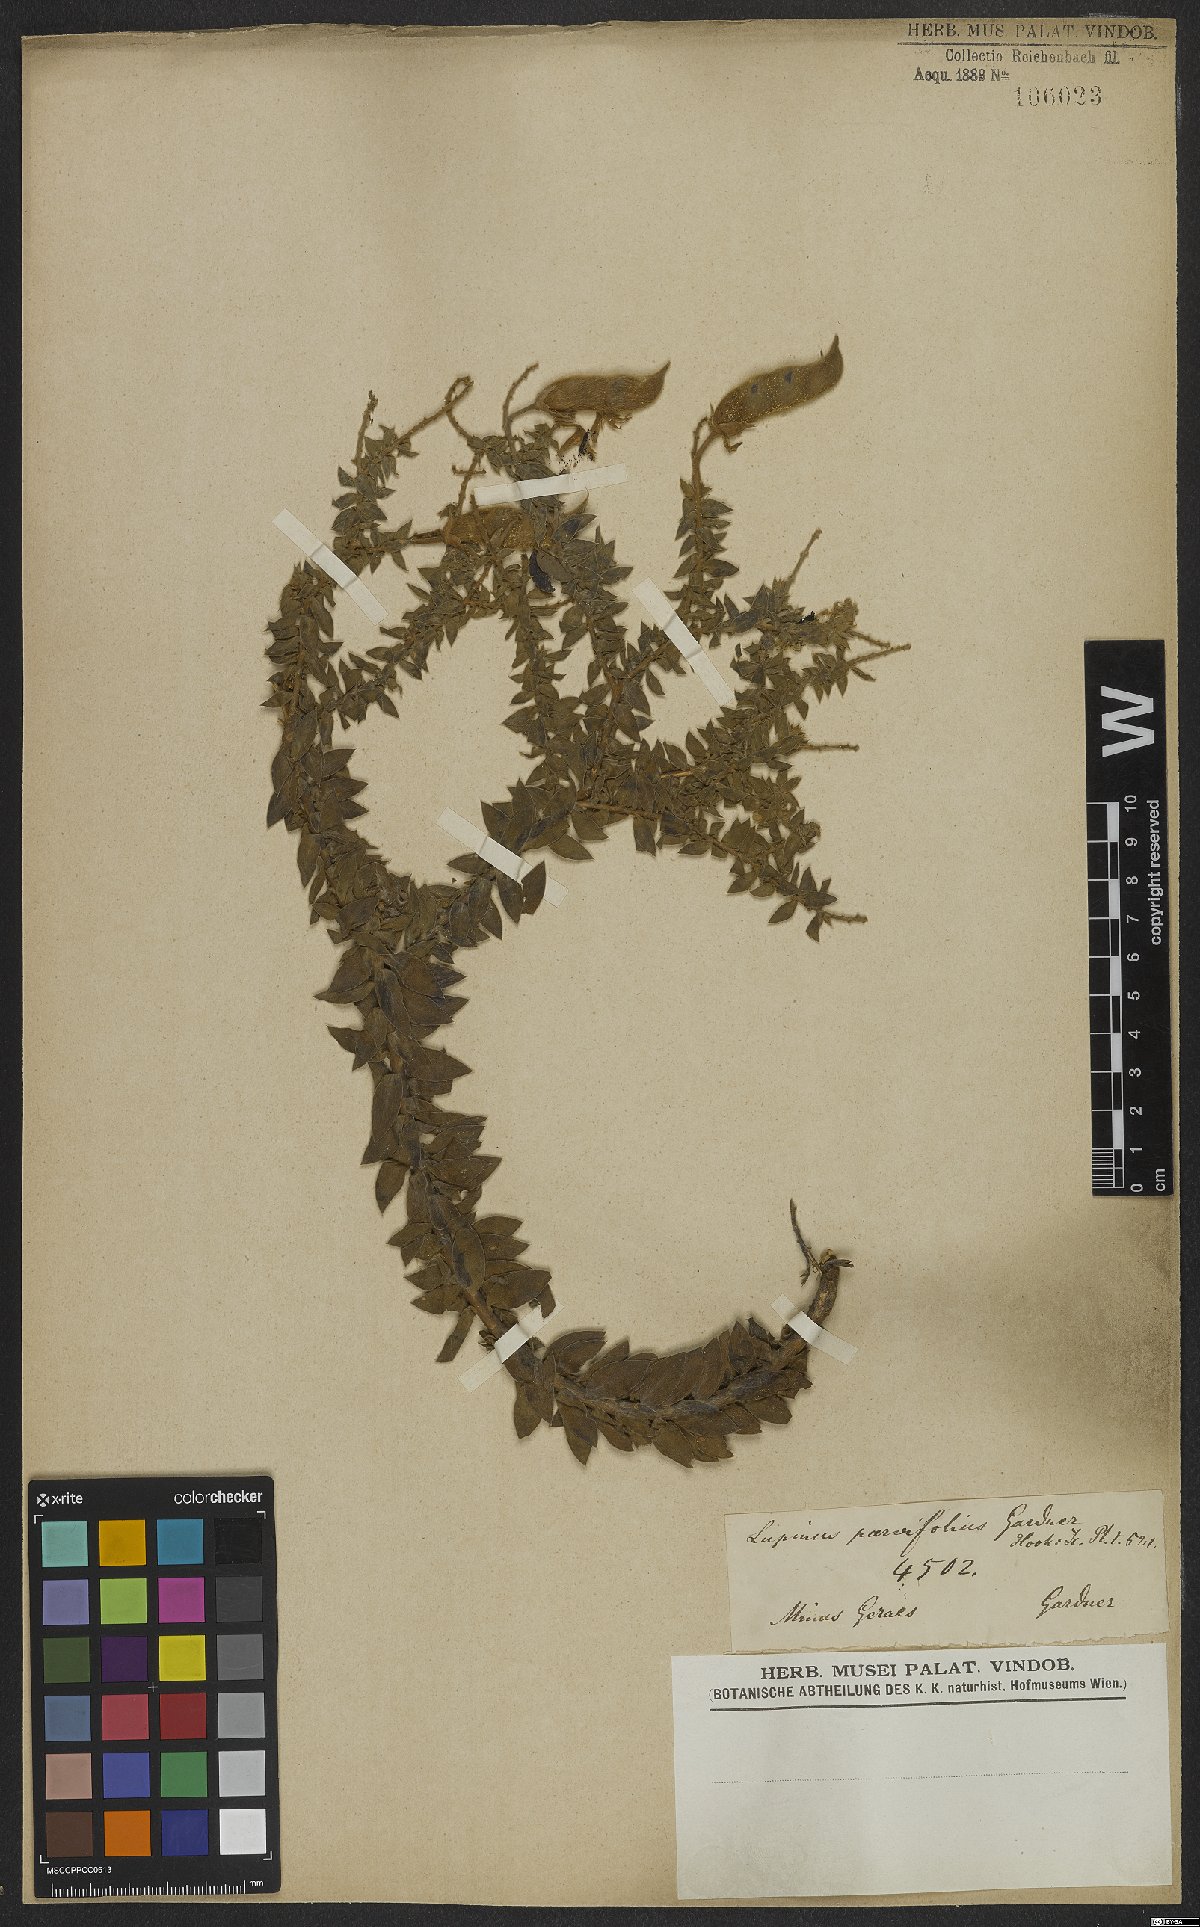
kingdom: Plantae
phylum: Tracheophyta
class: Magnoliopsida
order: Fabales
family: Fabaceae
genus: Lupinus
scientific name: Lupinus parvifolius
